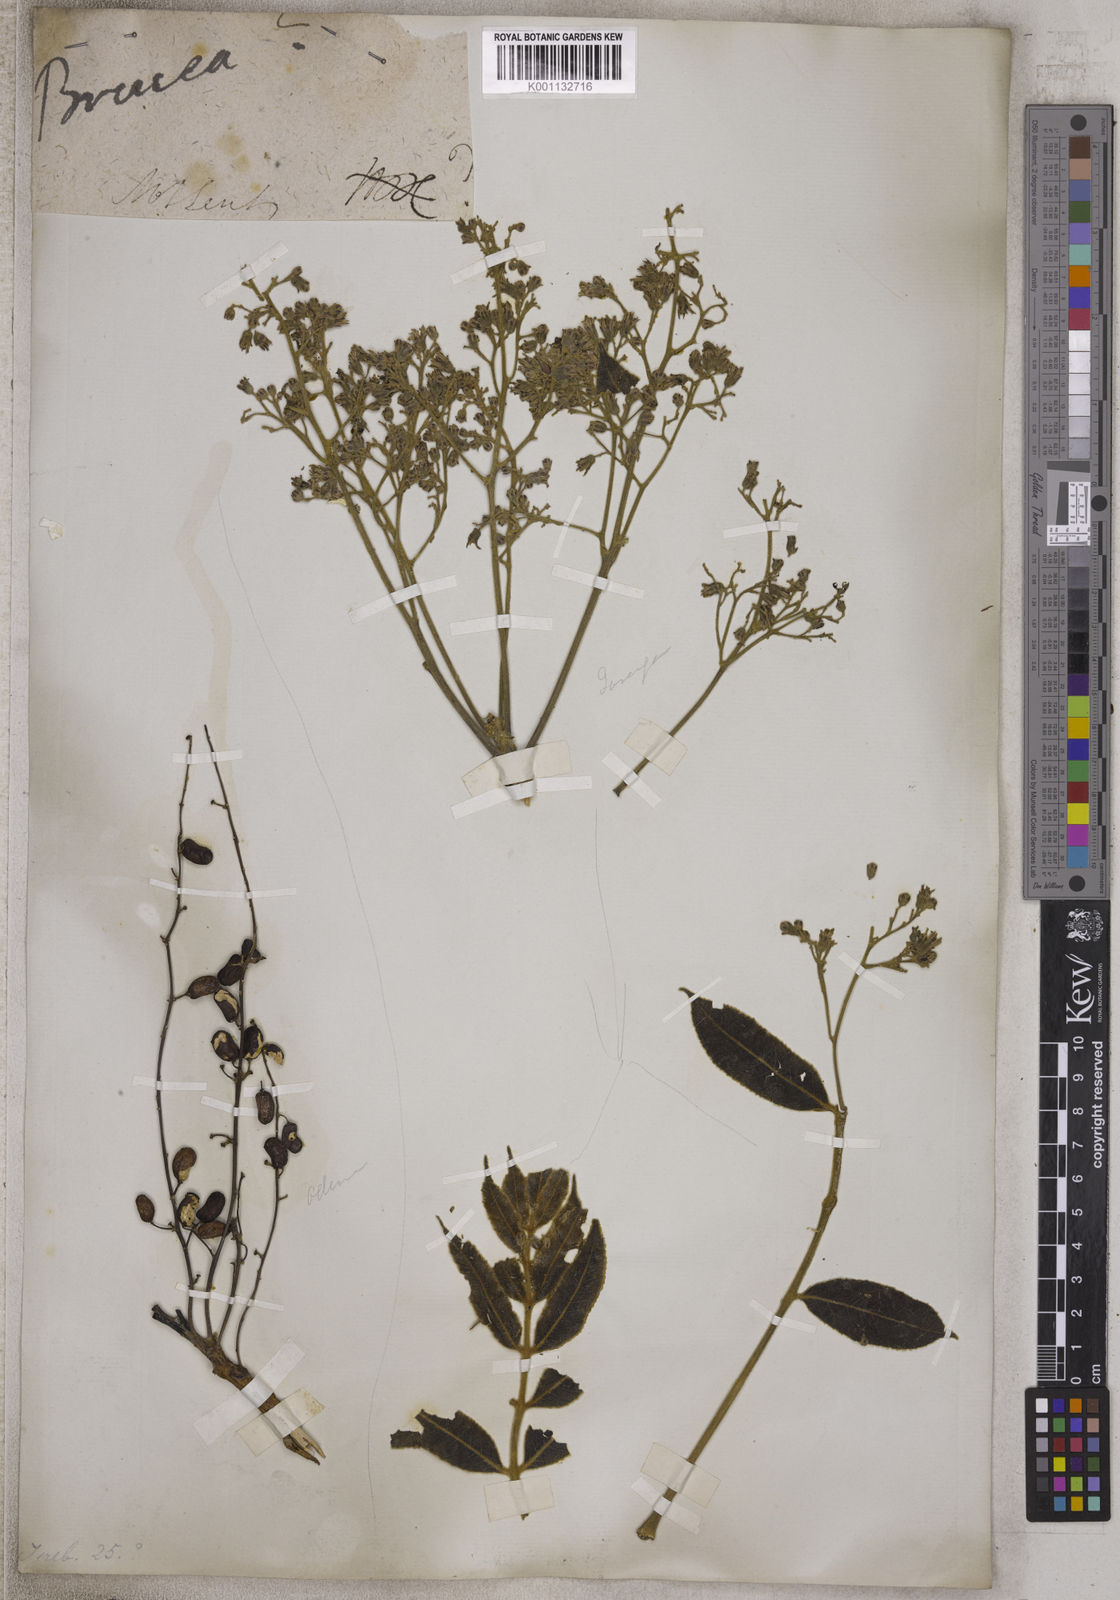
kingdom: Plantae
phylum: Tracheophyta
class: Magnoliopsida
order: Sapindales
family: Simaroubaceae
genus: Brucea
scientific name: Brucea
